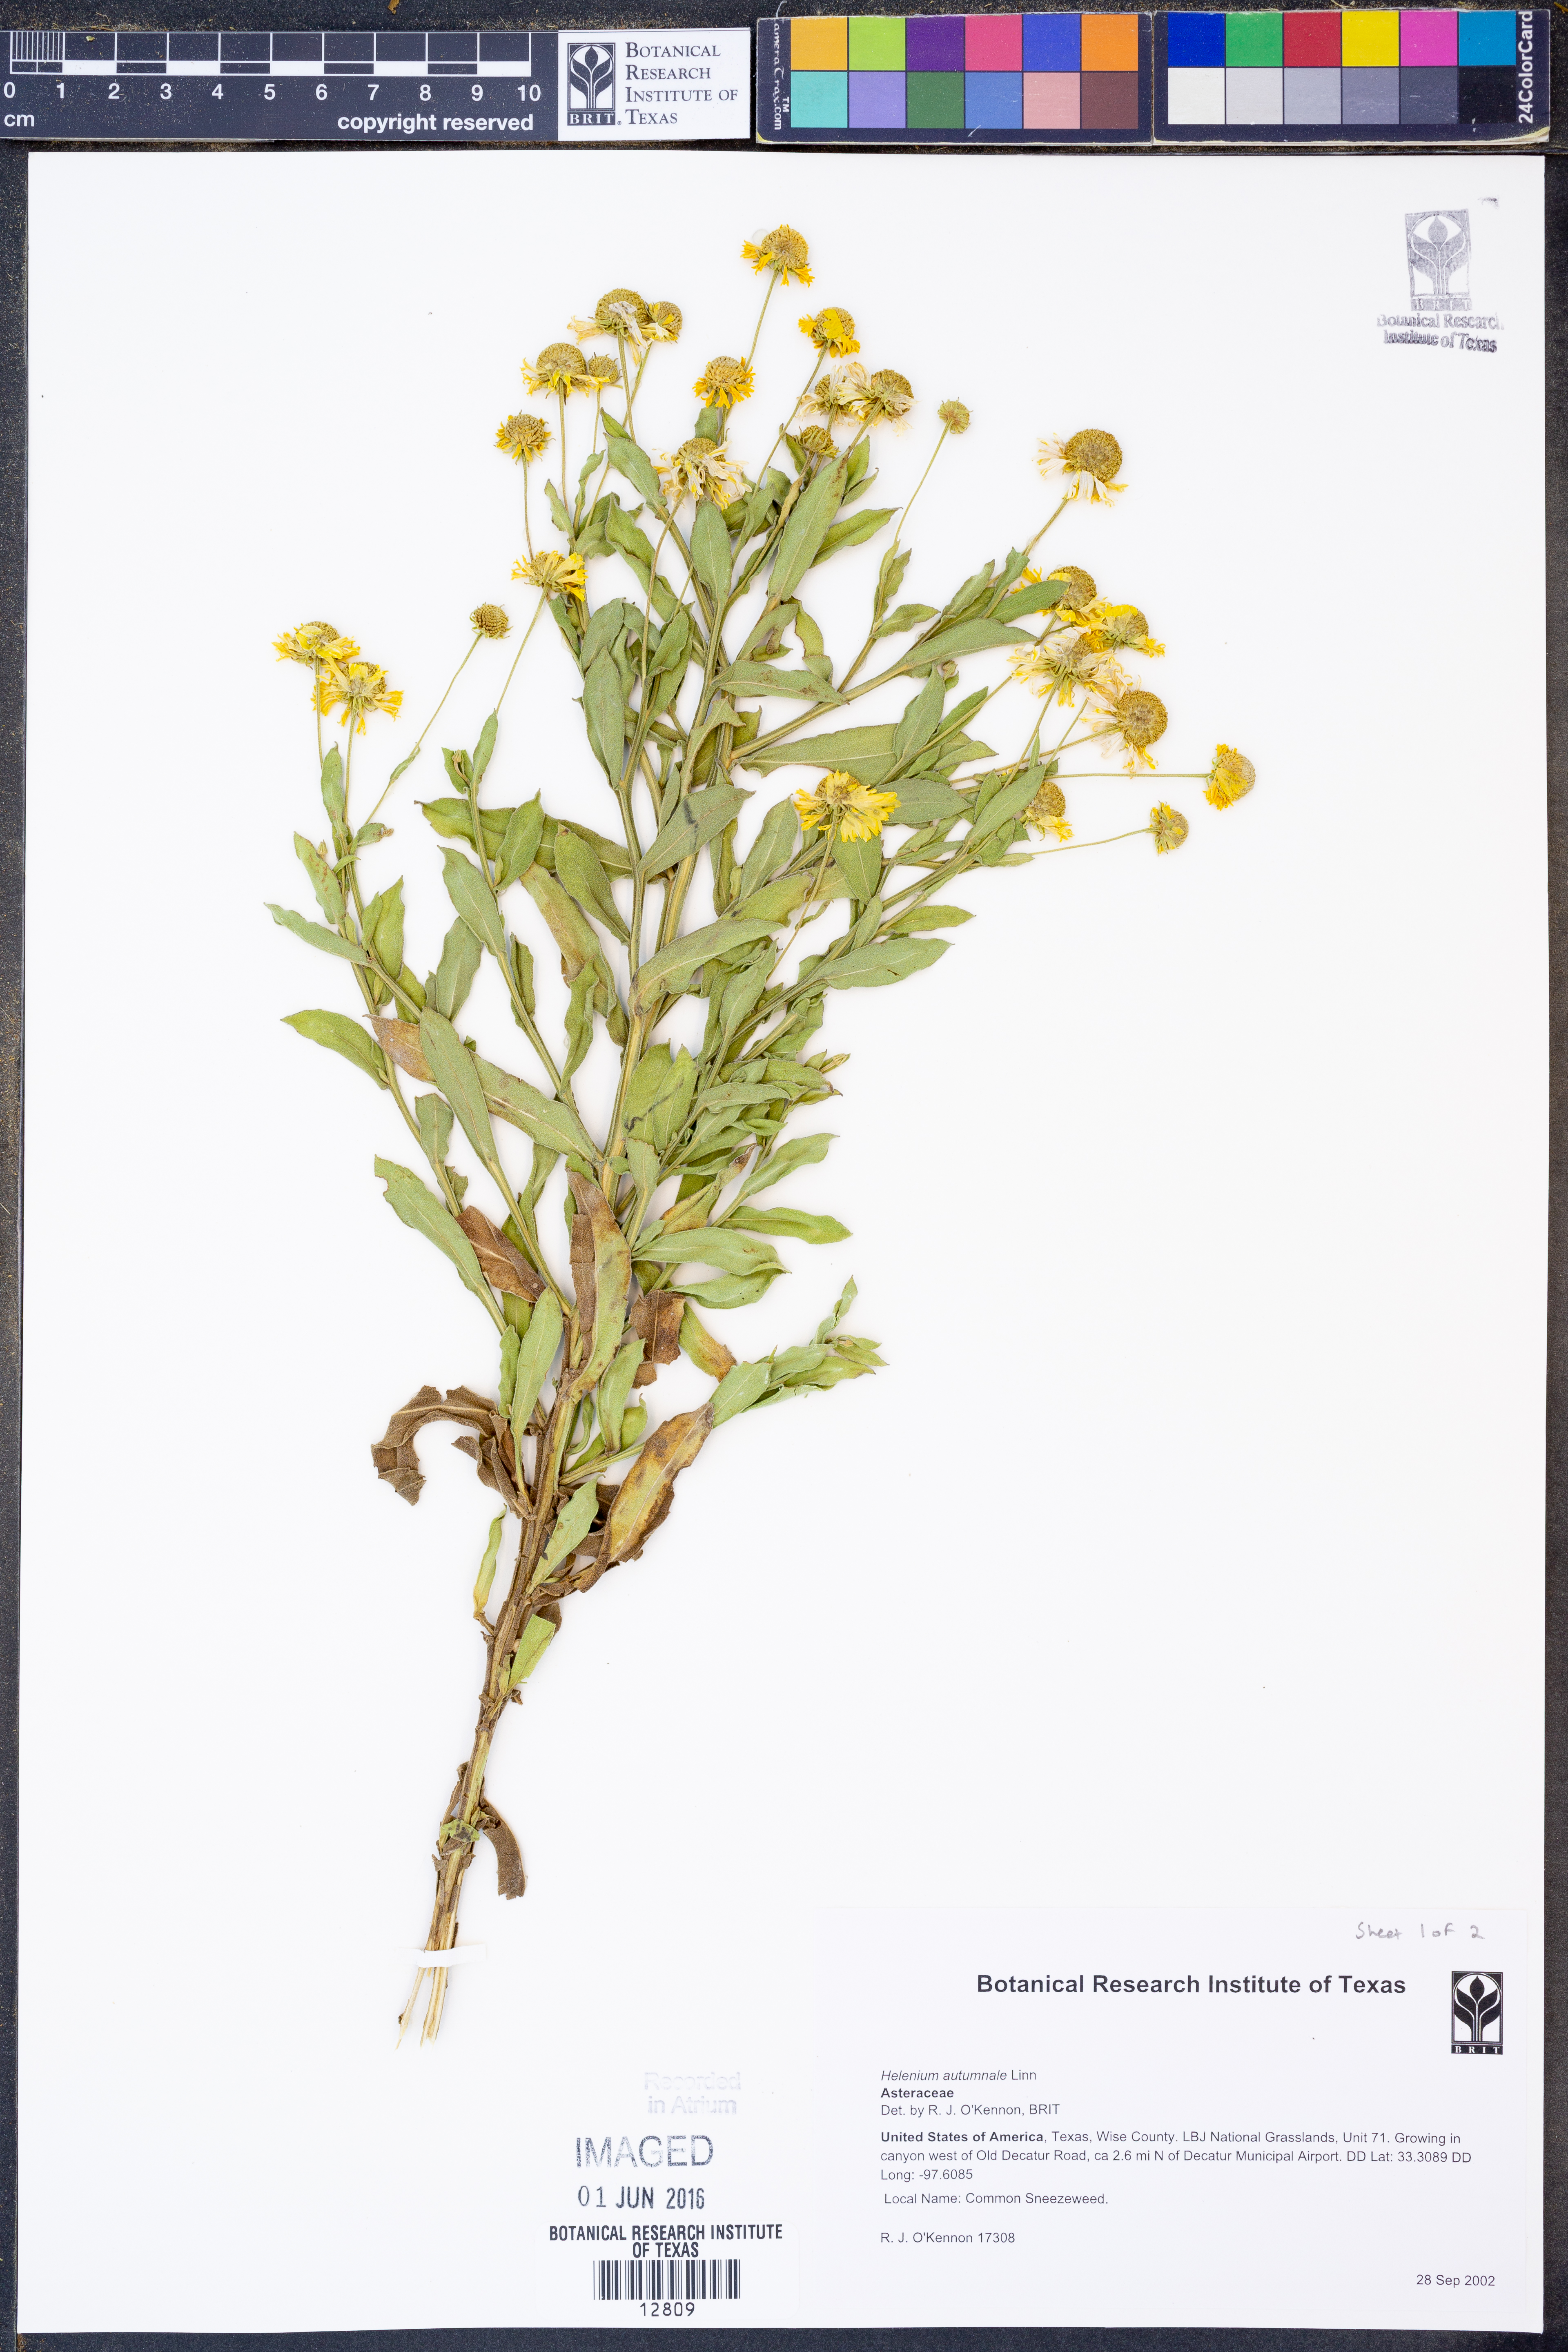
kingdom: Plantae
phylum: Tracheophyta
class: Magnoliopsida
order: Asterales
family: Asteraceae
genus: Helenium
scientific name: Helenium autumnale
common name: Sneezeweed
